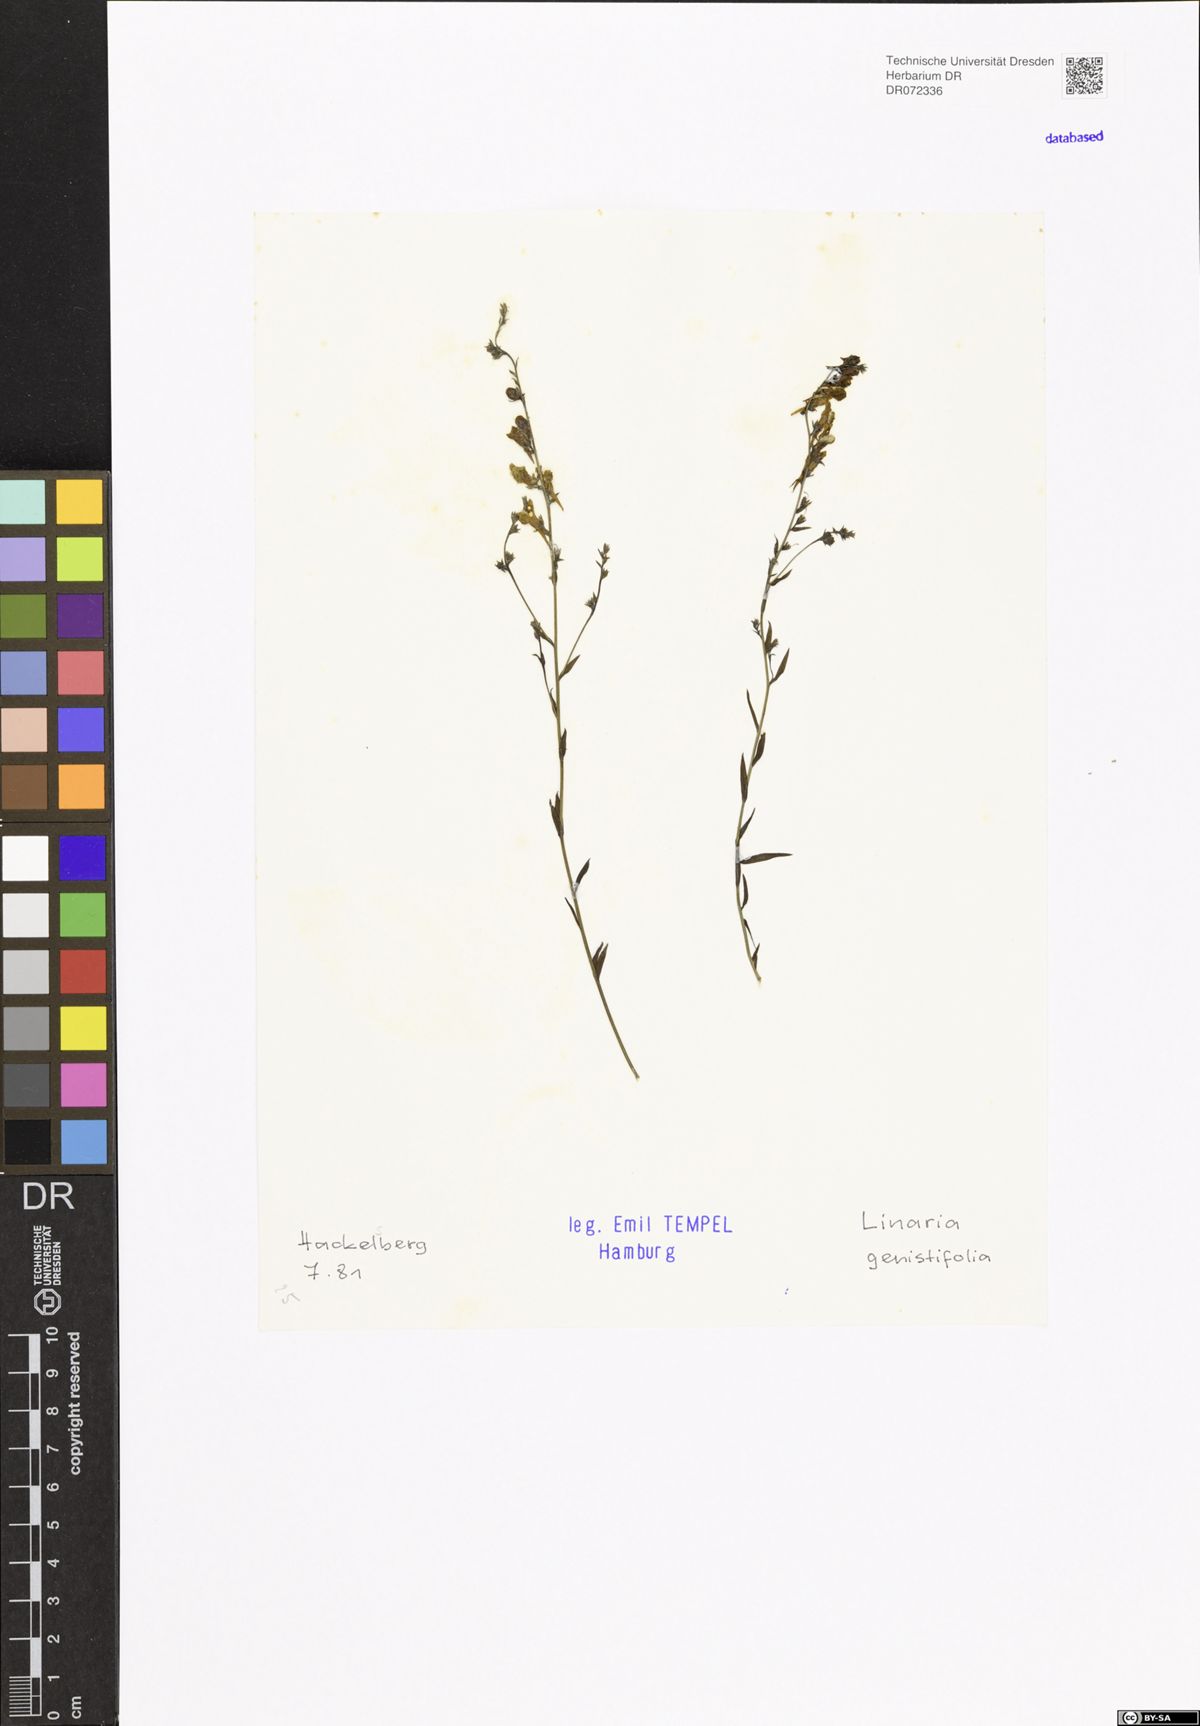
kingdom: Plantae
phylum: Tracheophyta
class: Magnoliopsida
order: Lamiales
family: Plantaginaceae
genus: Linaria
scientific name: Linaria genistifolia
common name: Broomleaf toadflax
